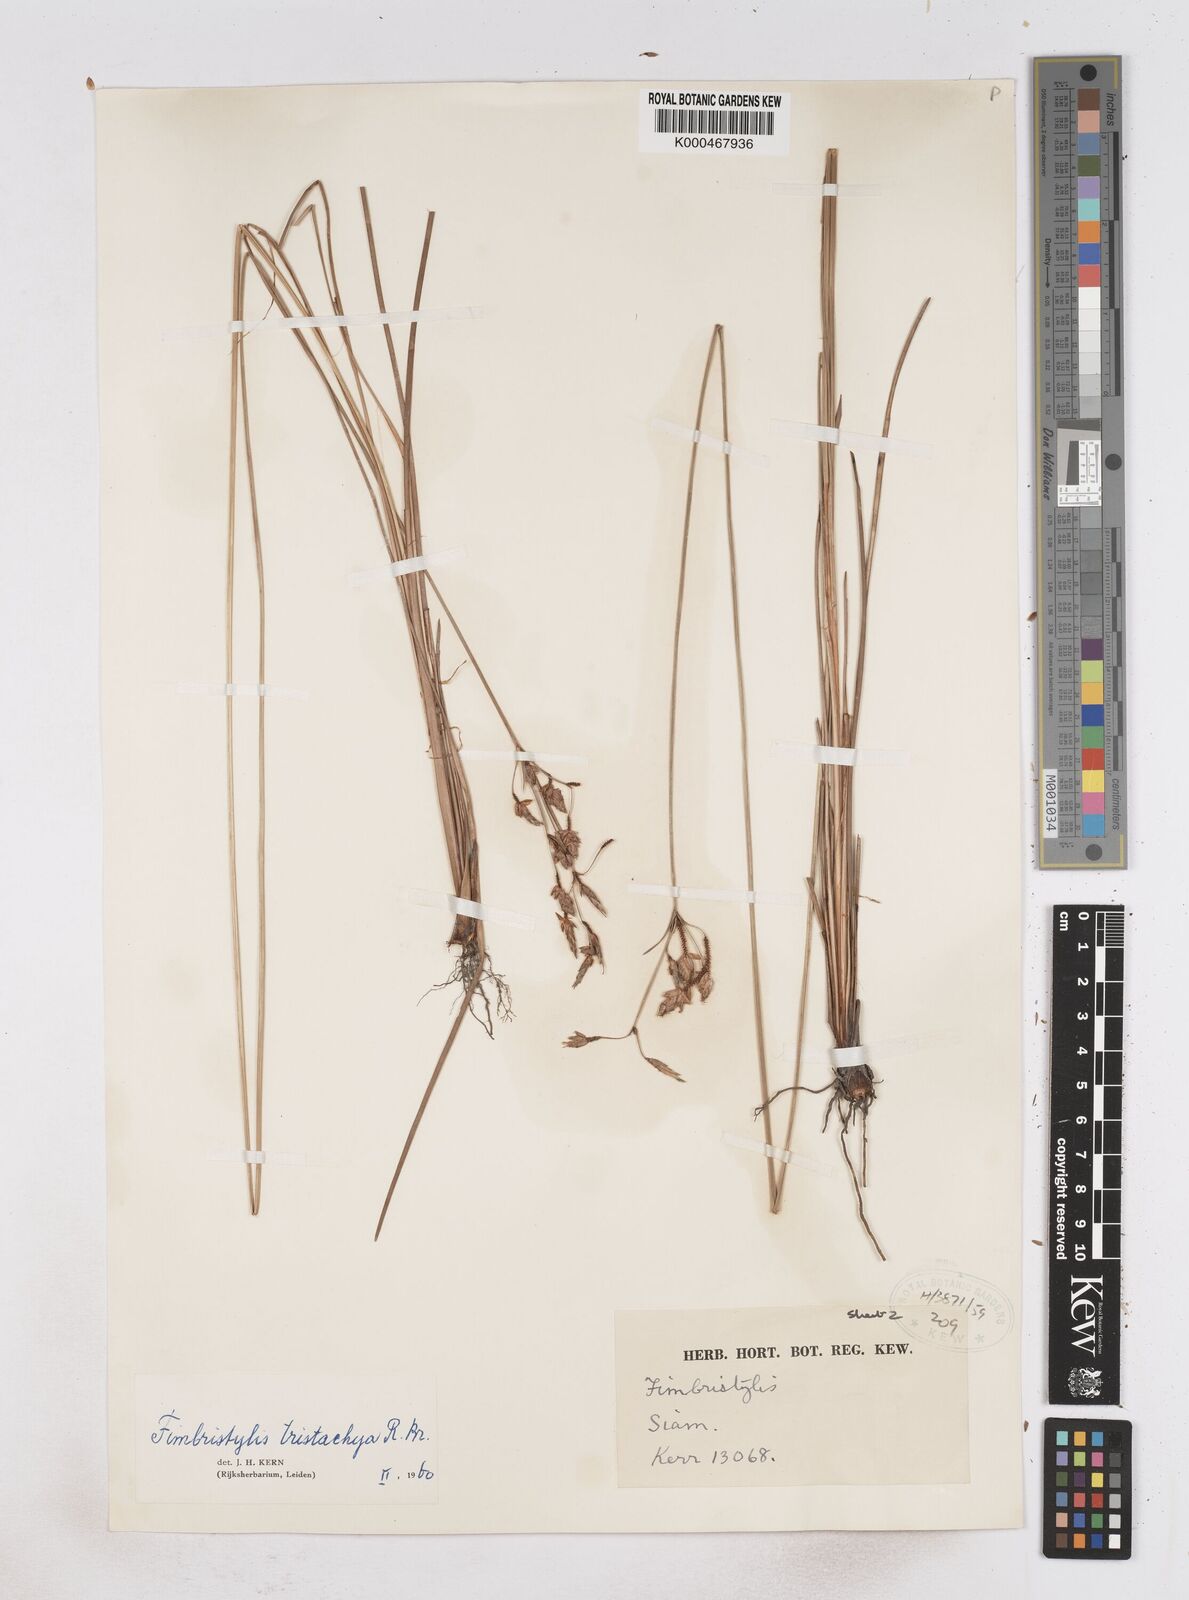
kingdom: Plantae
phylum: Tracheophyta
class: Liliopsida
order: Poales
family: Cyperaceae
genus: Fimbristylis
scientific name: Fimbristylis tristachya
